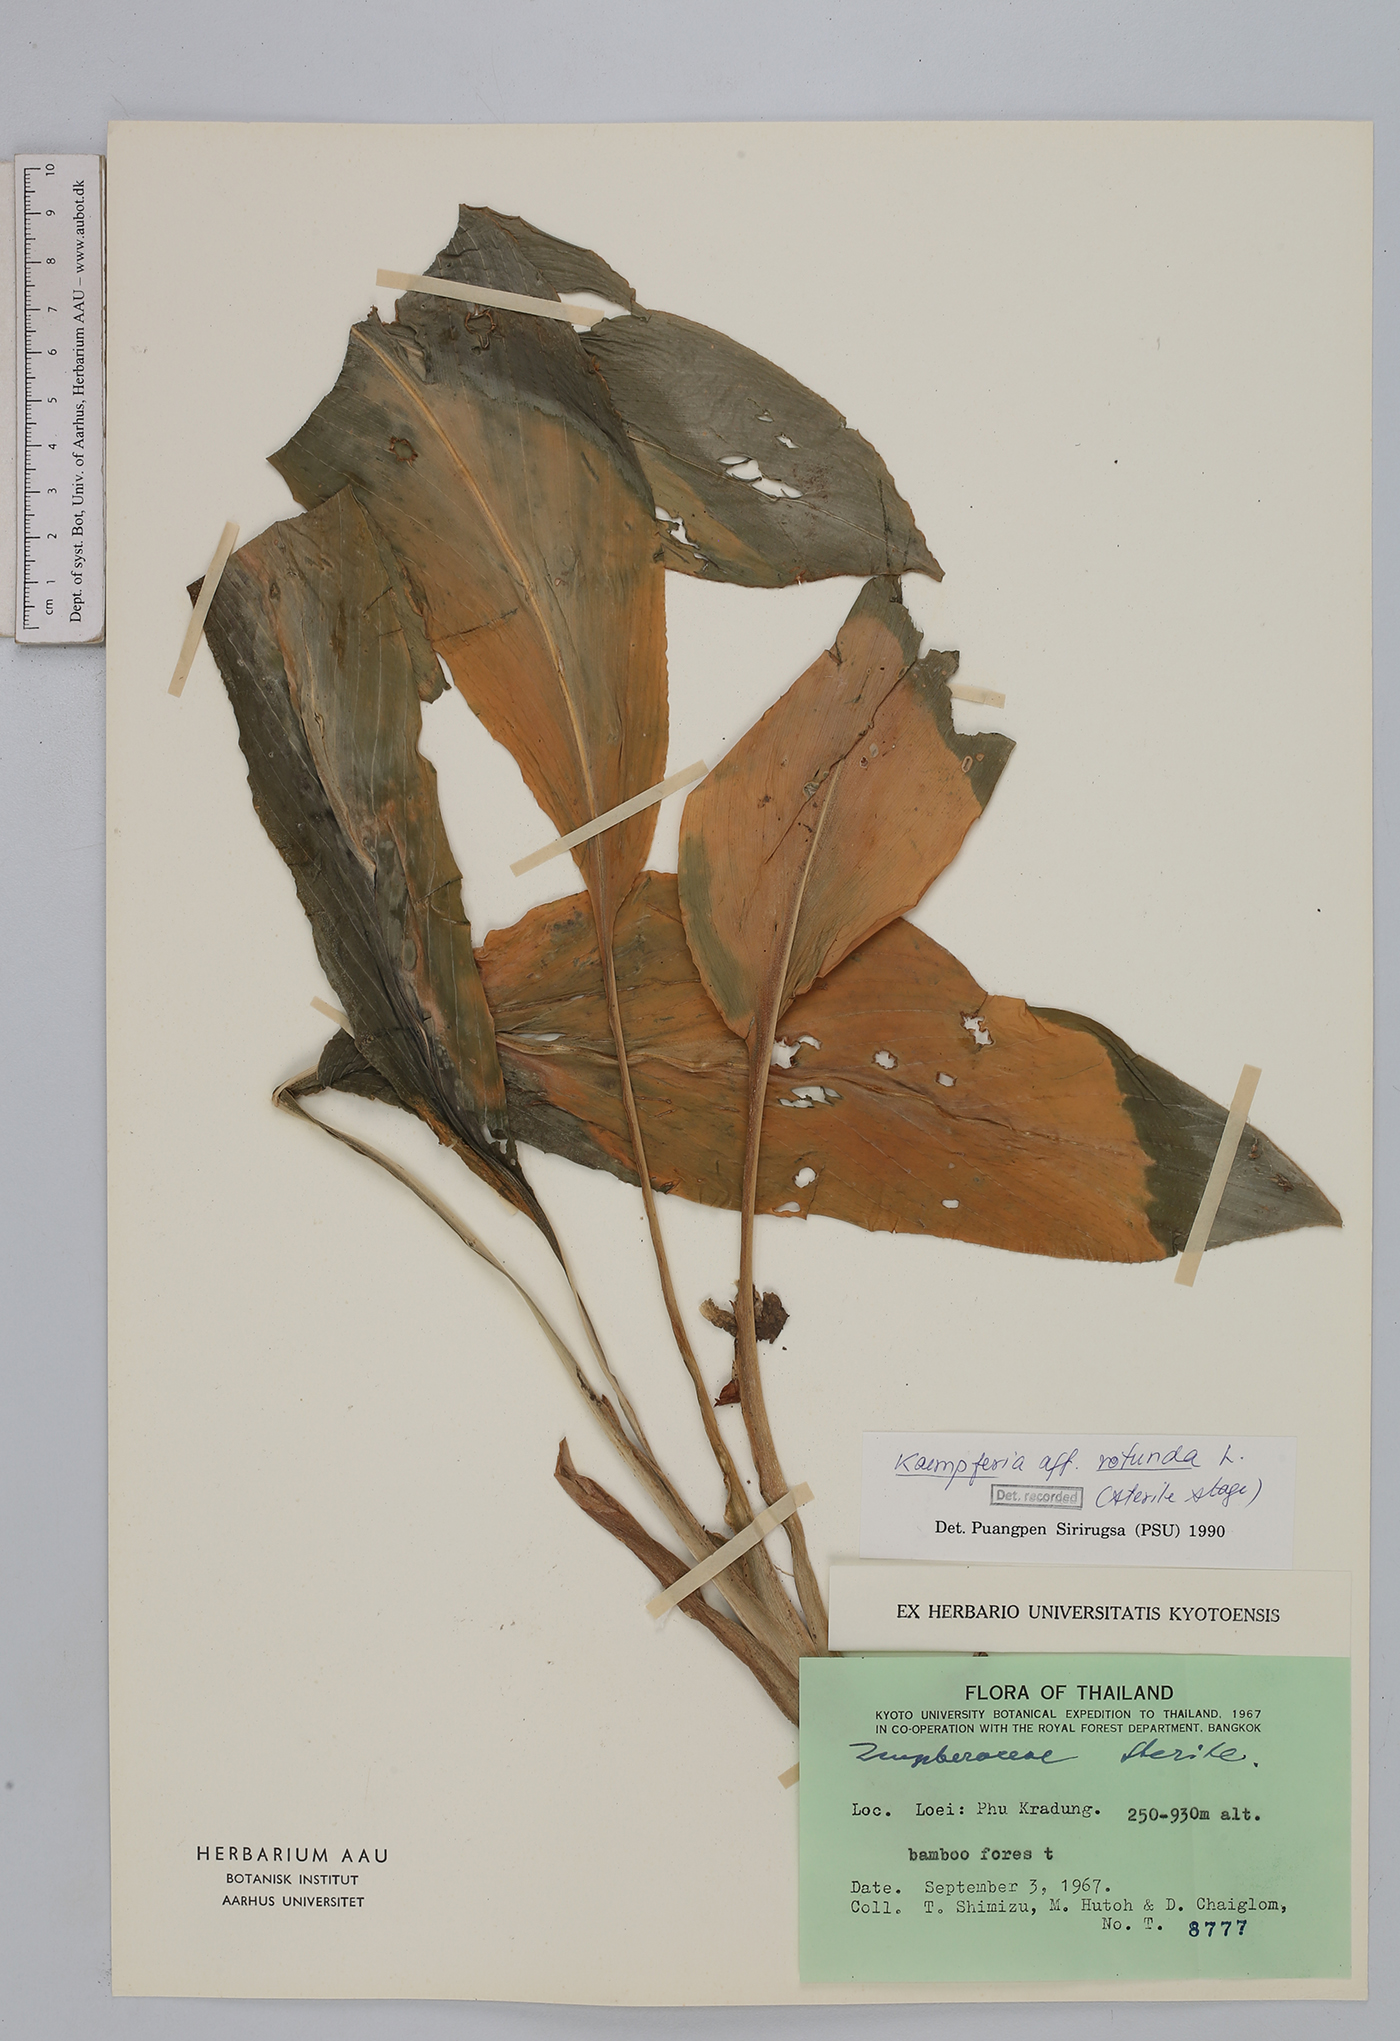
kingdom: Plantae
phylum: Tracheophyta
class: Liliopsida
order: Zingiberales
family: Zingiberaceae
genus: Kaempferia
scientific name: Kaempferia rotunda
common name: Tropical-crocus
